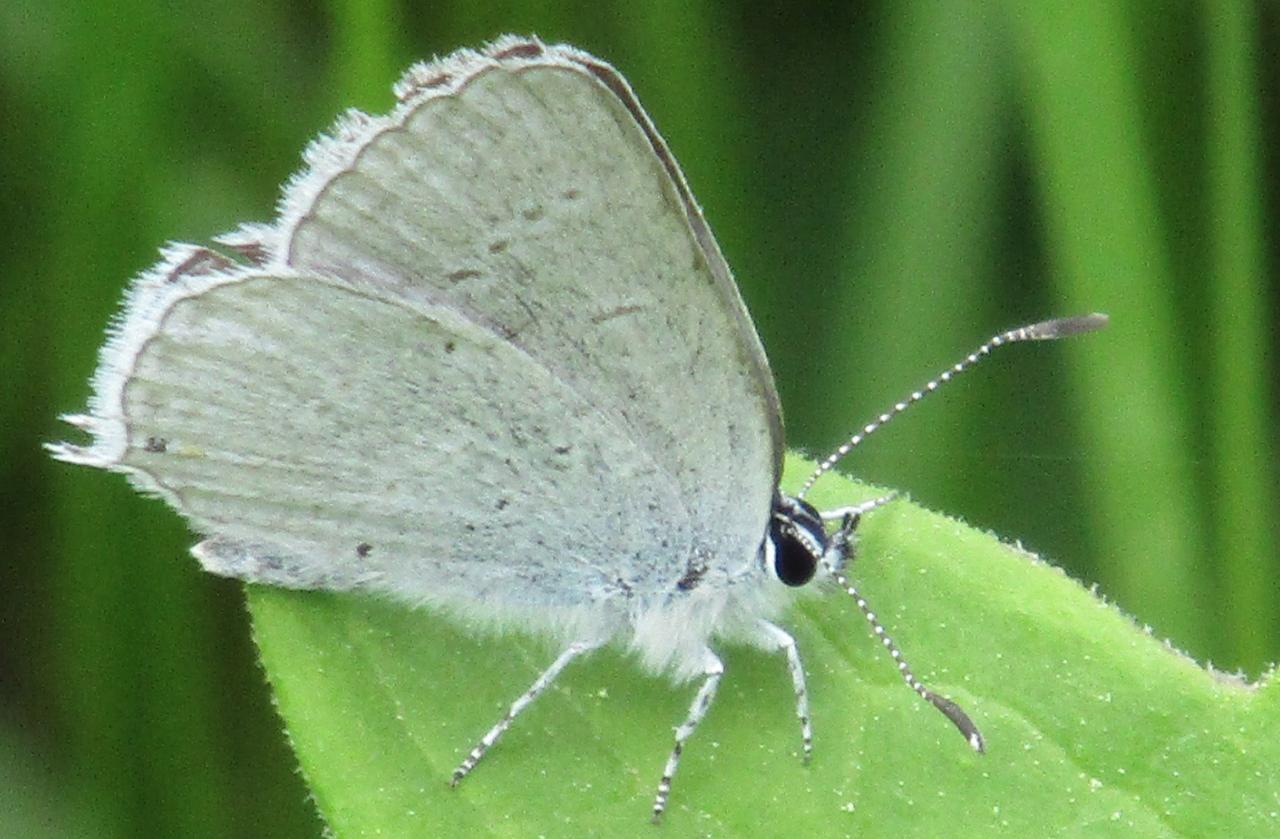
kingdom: Animalia
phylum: Arthropoda
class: Insecta
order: Lepidoptera
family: Lycaenidae
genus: Elkalyce
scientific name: Elkalyce amyntula
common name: Western Tailed-Blue
